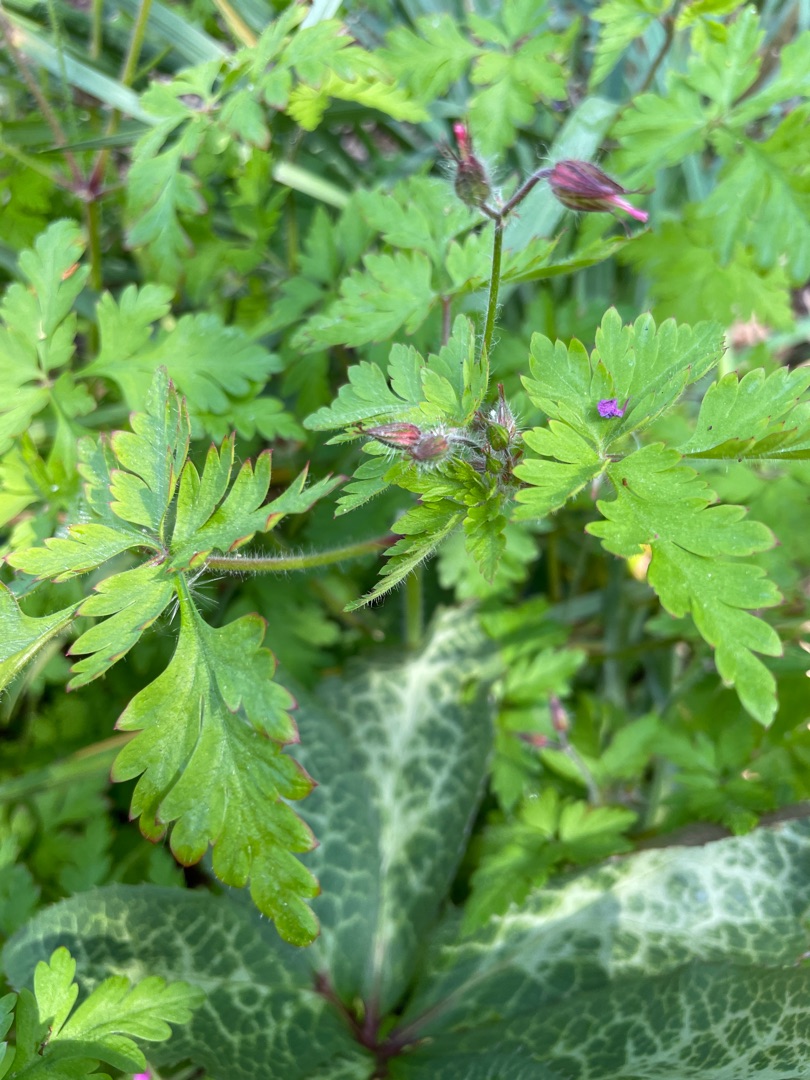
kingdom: Plantae
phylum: Tracheophyta
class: Magnoliopsida
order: Geraniales
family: Geraniaceae
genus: Geranium
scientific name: Geranium robertianum
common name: Stinkende storkenæb
